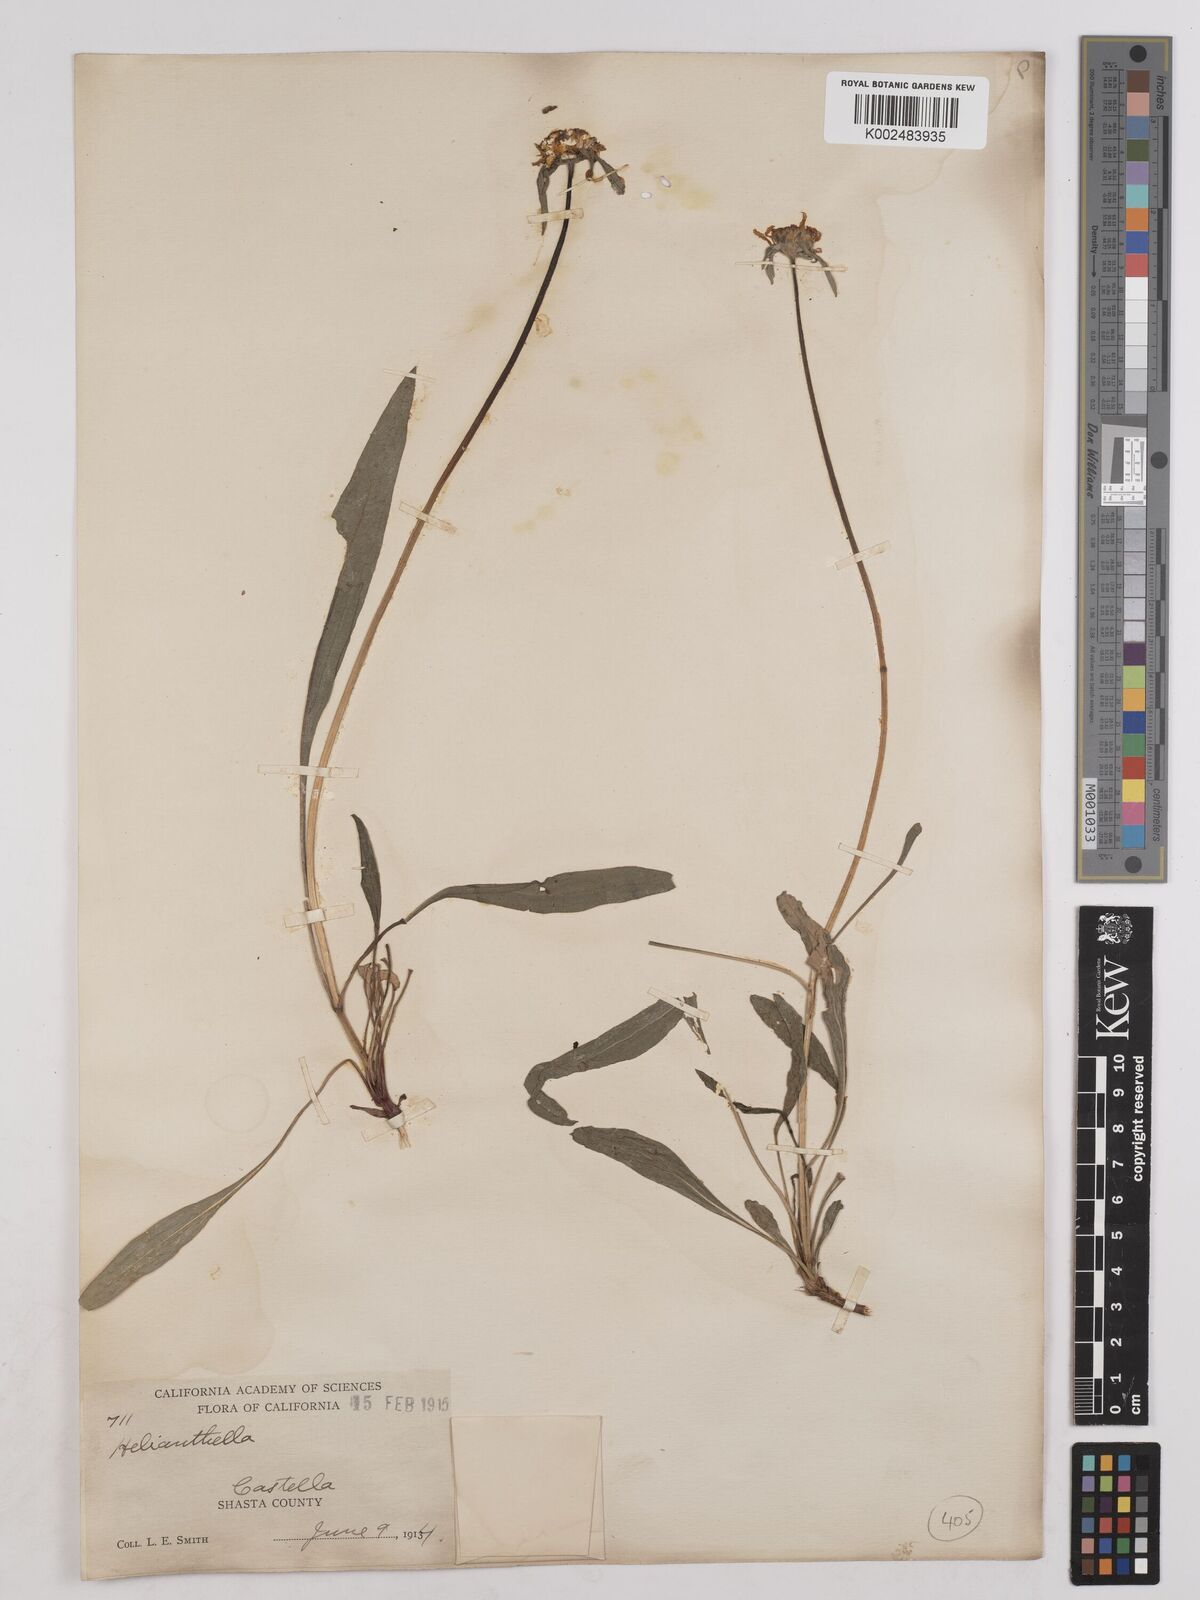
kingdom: Plantae
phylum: Tracheophyta
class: Magnoliopsida
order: Asterales
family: Asteraceae
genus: Helianthella
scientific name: Helianthella
